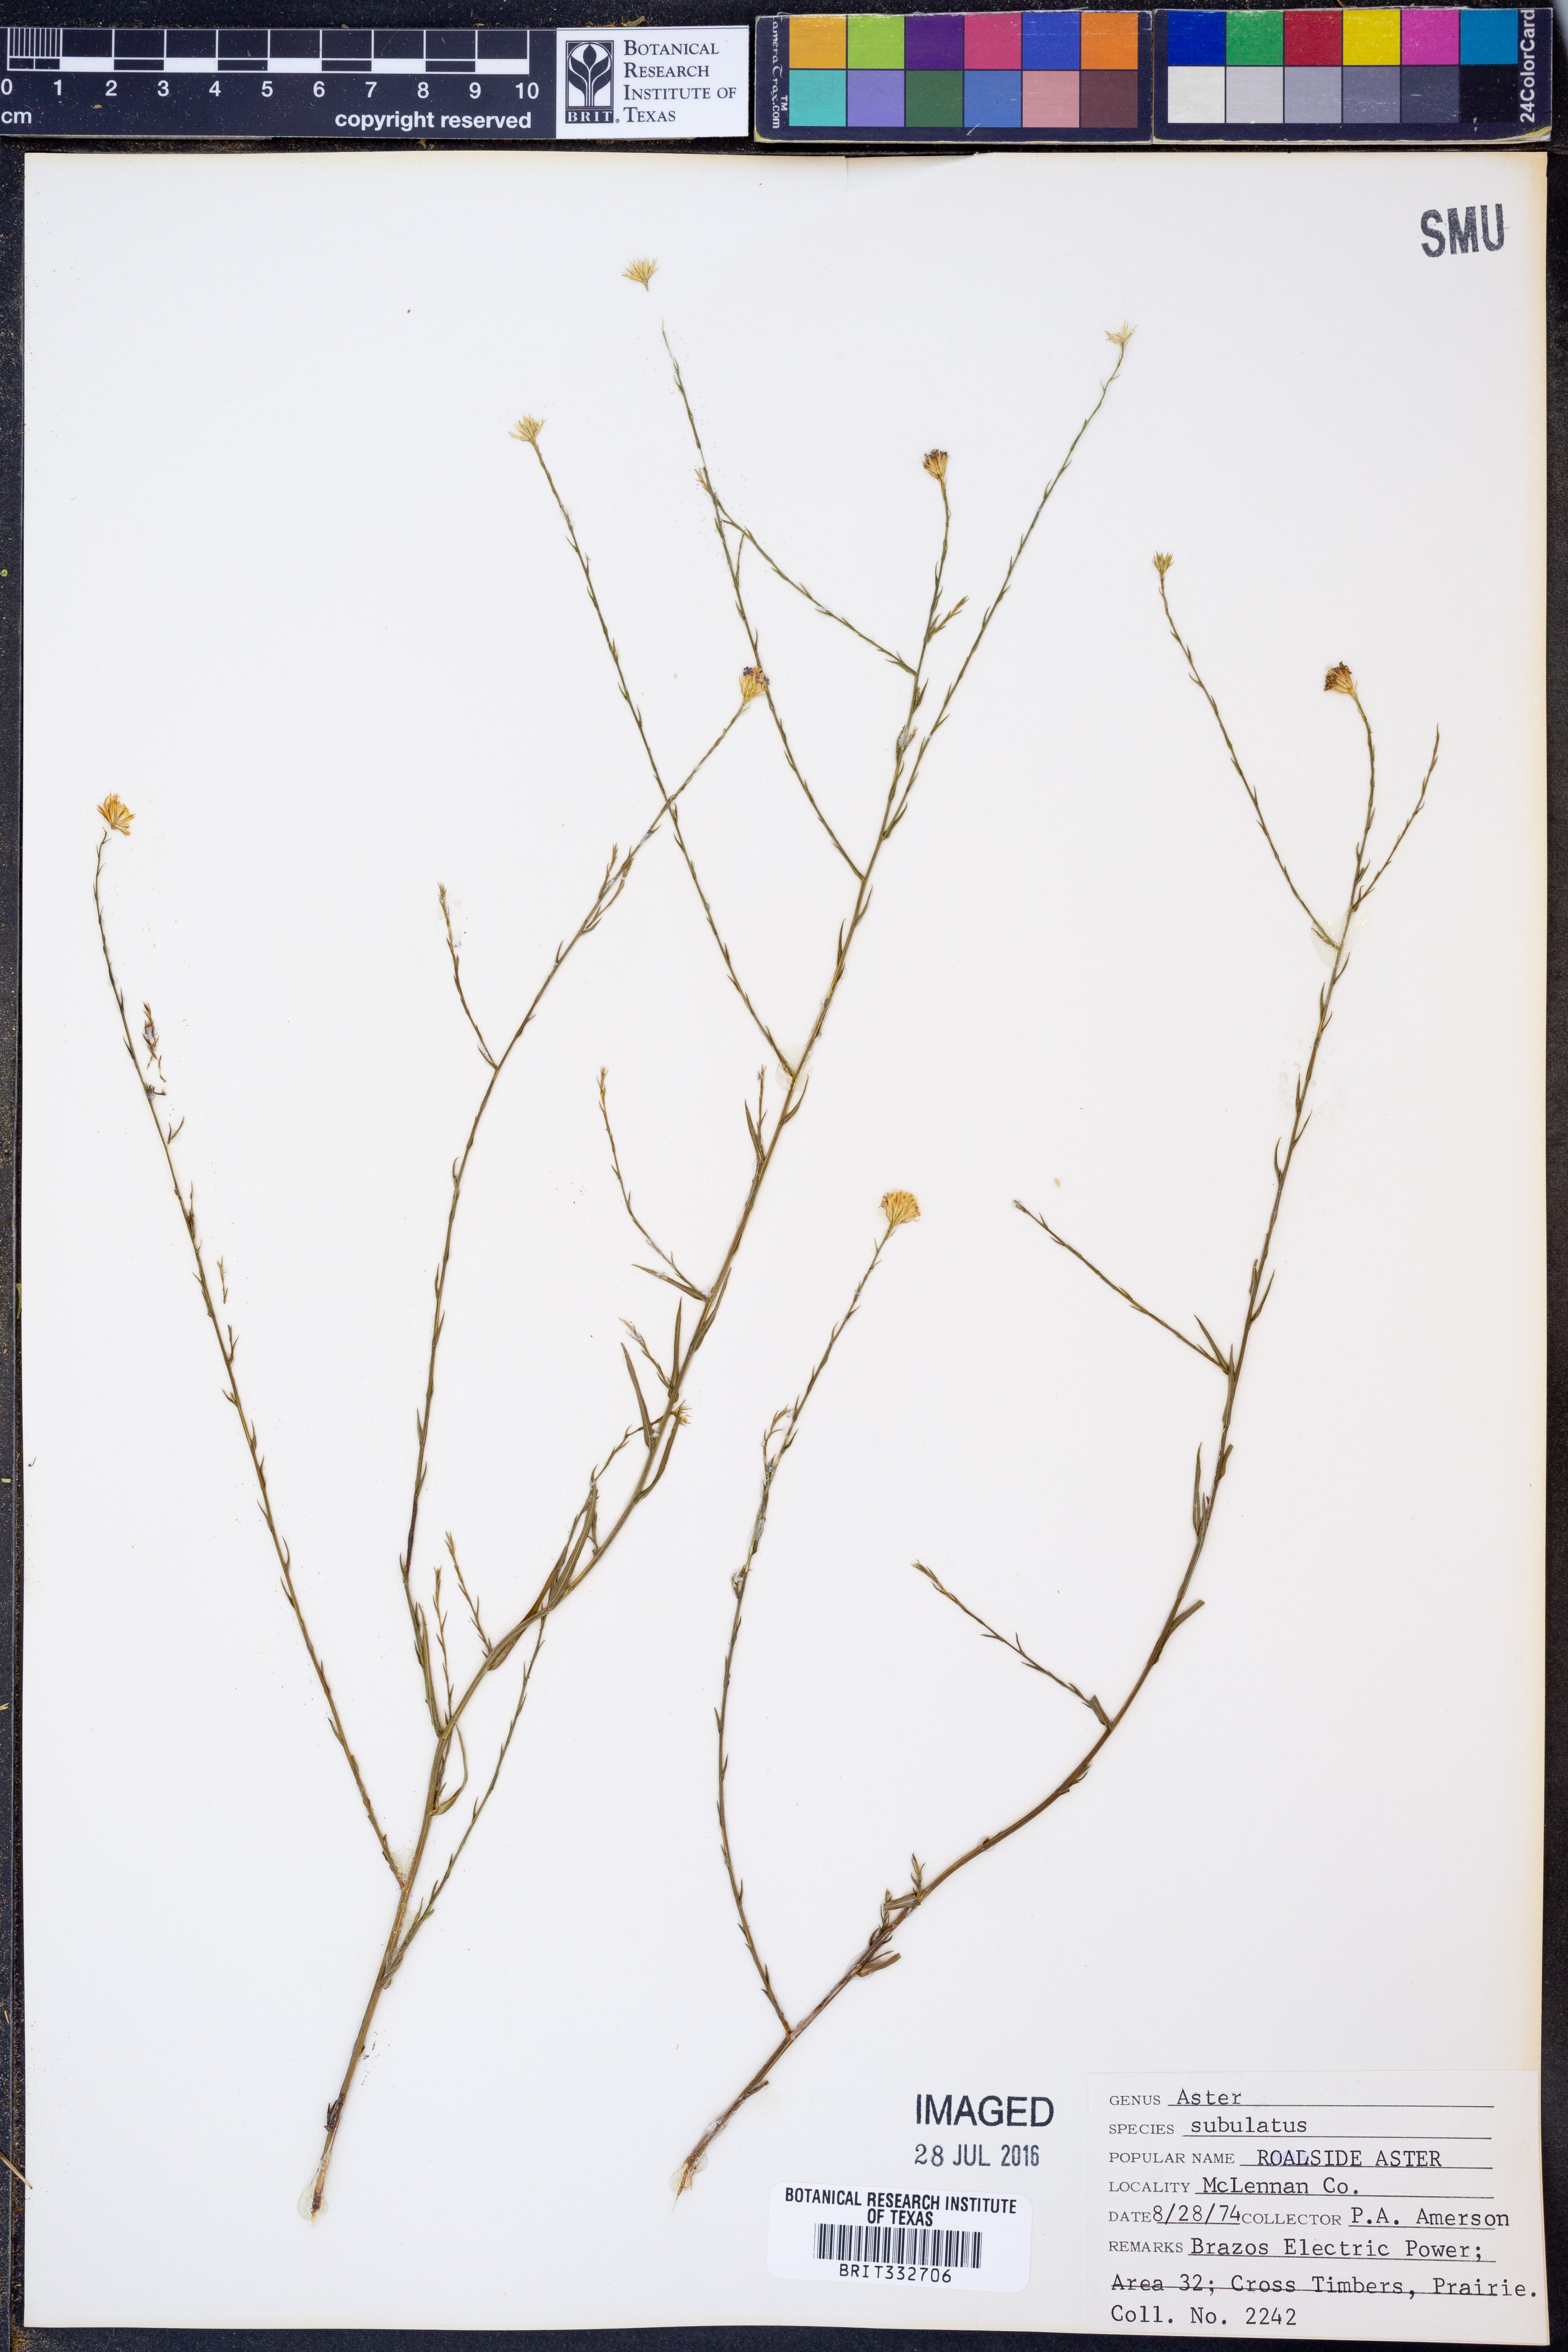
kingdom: Plantae
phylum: Tracheophyta
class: Magnoliopsida
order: Asterales
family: Asteraceae
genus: Symphyotrichum
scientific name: Symphyotrichum subulatum
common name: Annual saltmarsh aster
